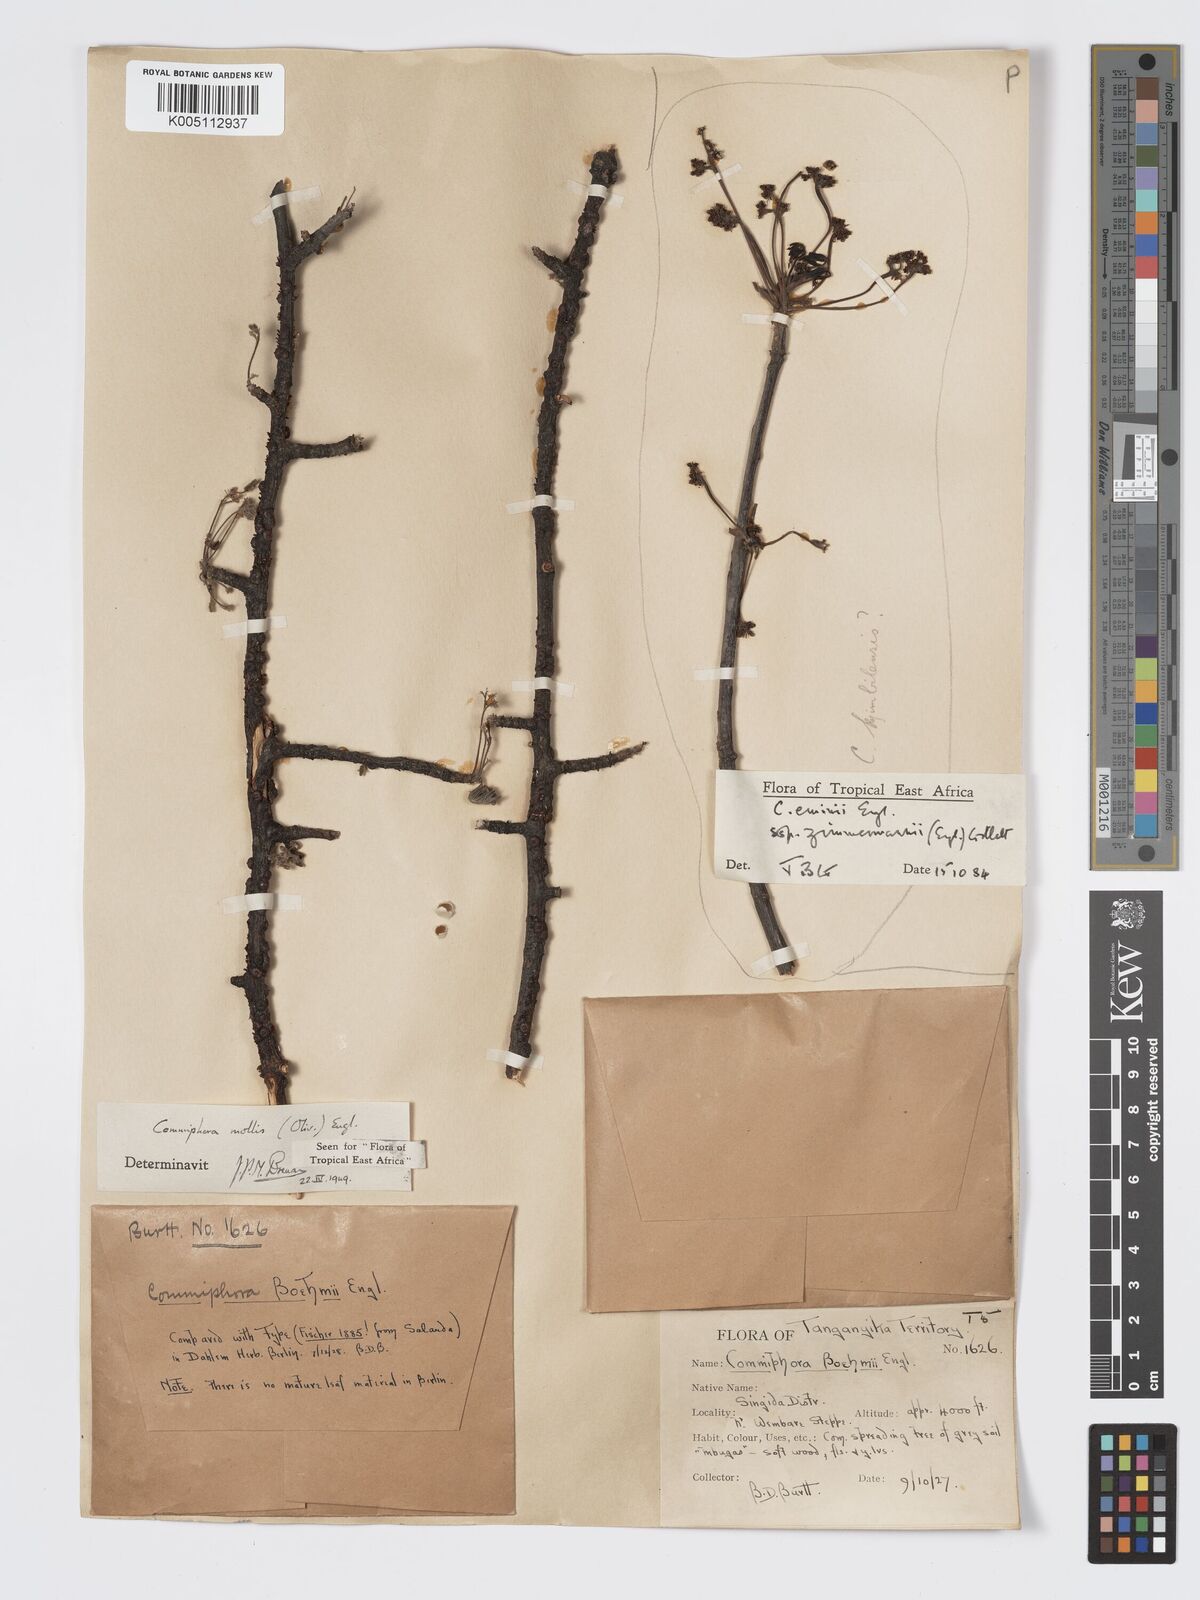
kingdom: Plantae
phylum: Tracheophyta
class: Magnoliopsida
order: Sapindales
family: Burseraceae
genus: Commiphora
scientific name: Commiphora
